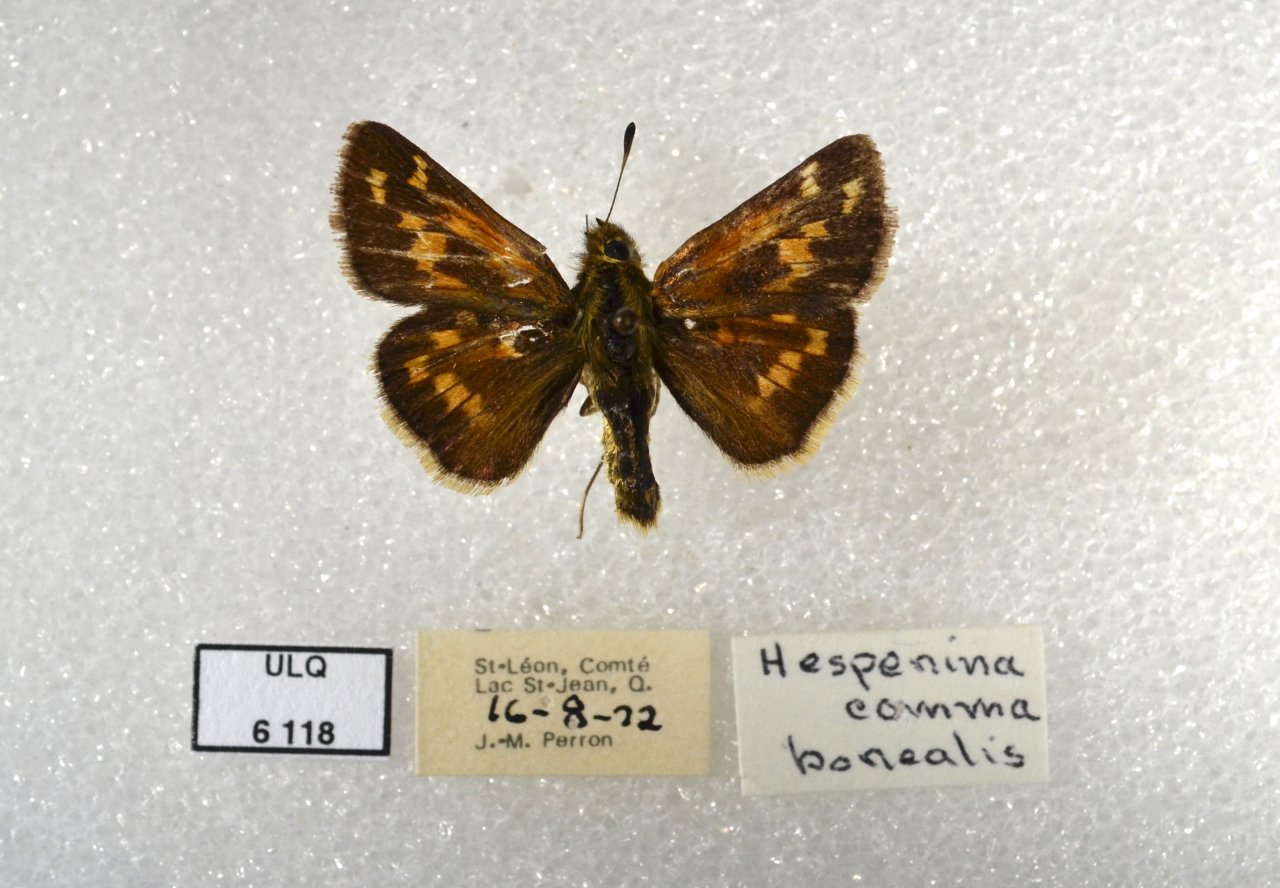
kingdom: Animalia
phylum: Arthropoda
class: Insecta
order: Lepidoptera
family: Hesperiidae
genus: Hesperia
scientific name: Hesperia comma
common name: Common Branded Skipper
